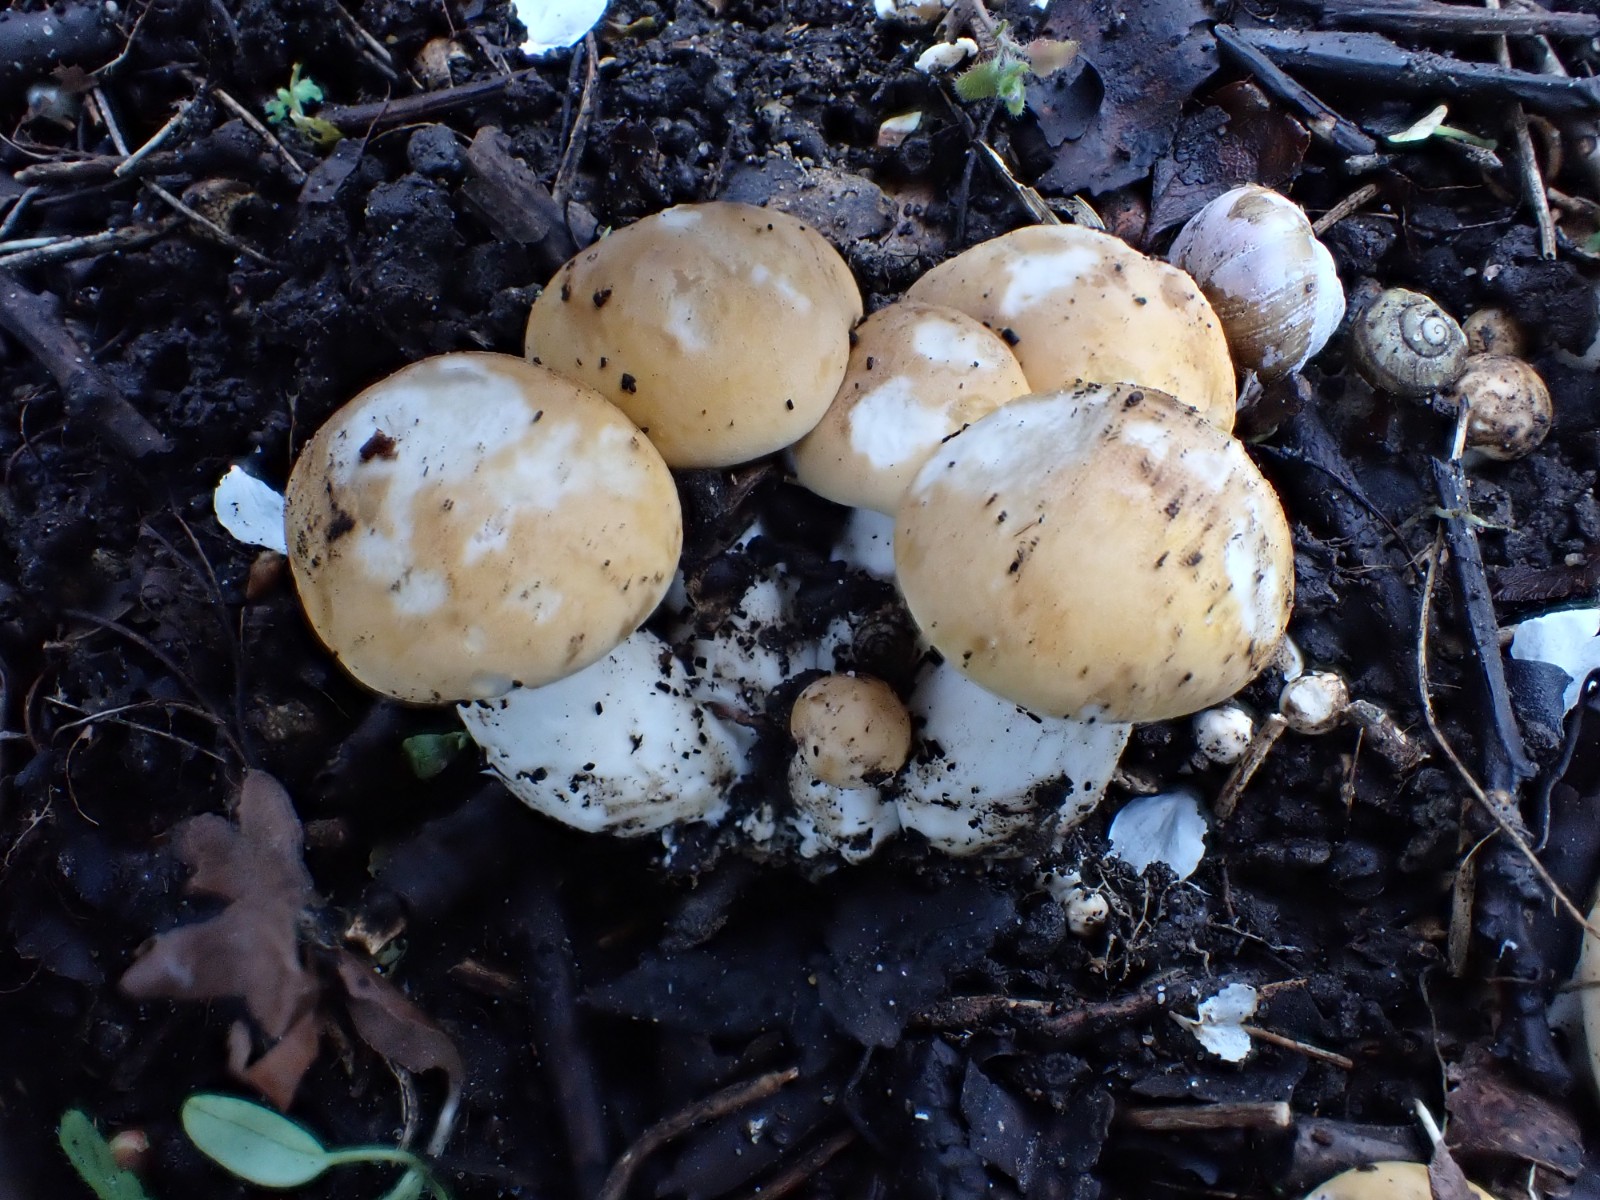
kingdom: Fungi
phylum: Basidiomycota
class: Agaricomycetes
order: Agaricales
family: Lyophyllaceae
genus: Calocybe
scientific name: Calocybe gambosa
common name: vårmusseron
